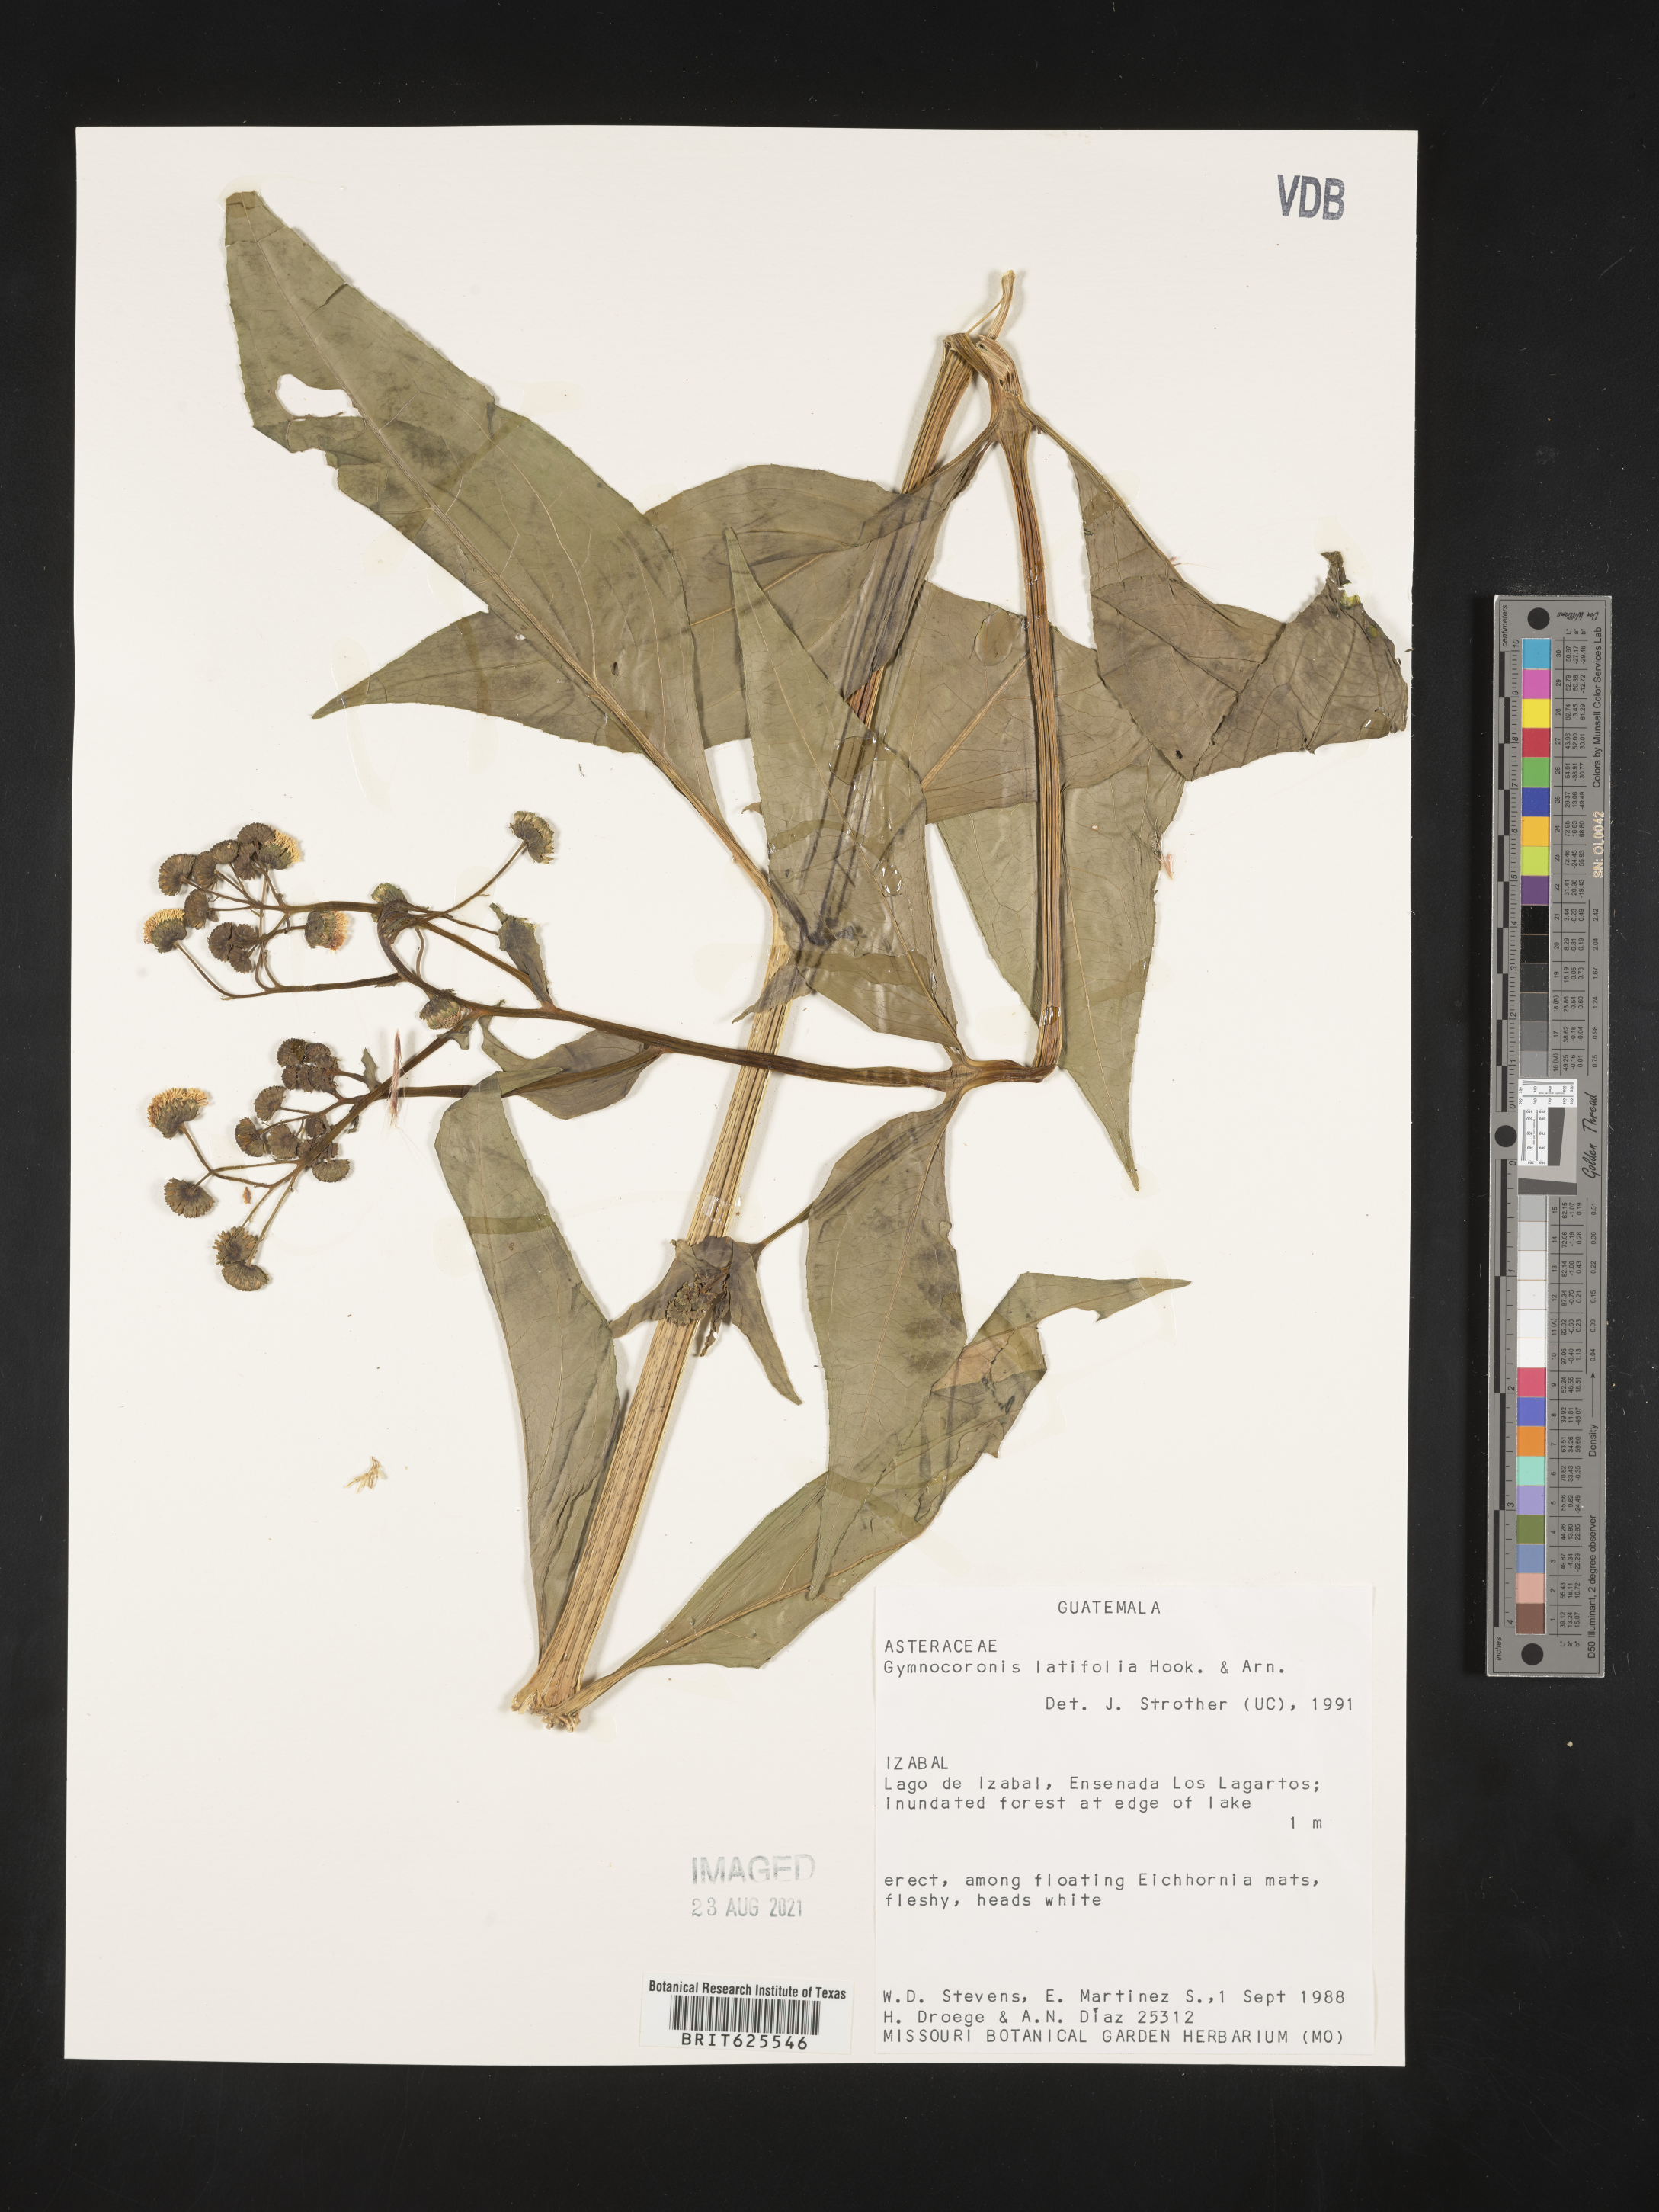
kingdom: Plantae
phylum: Tracheophyta
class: Magnoliopsida
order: Asterales
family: Asteraceae
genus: Gymnocoronis
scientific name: Gymnocoronis latifolia
